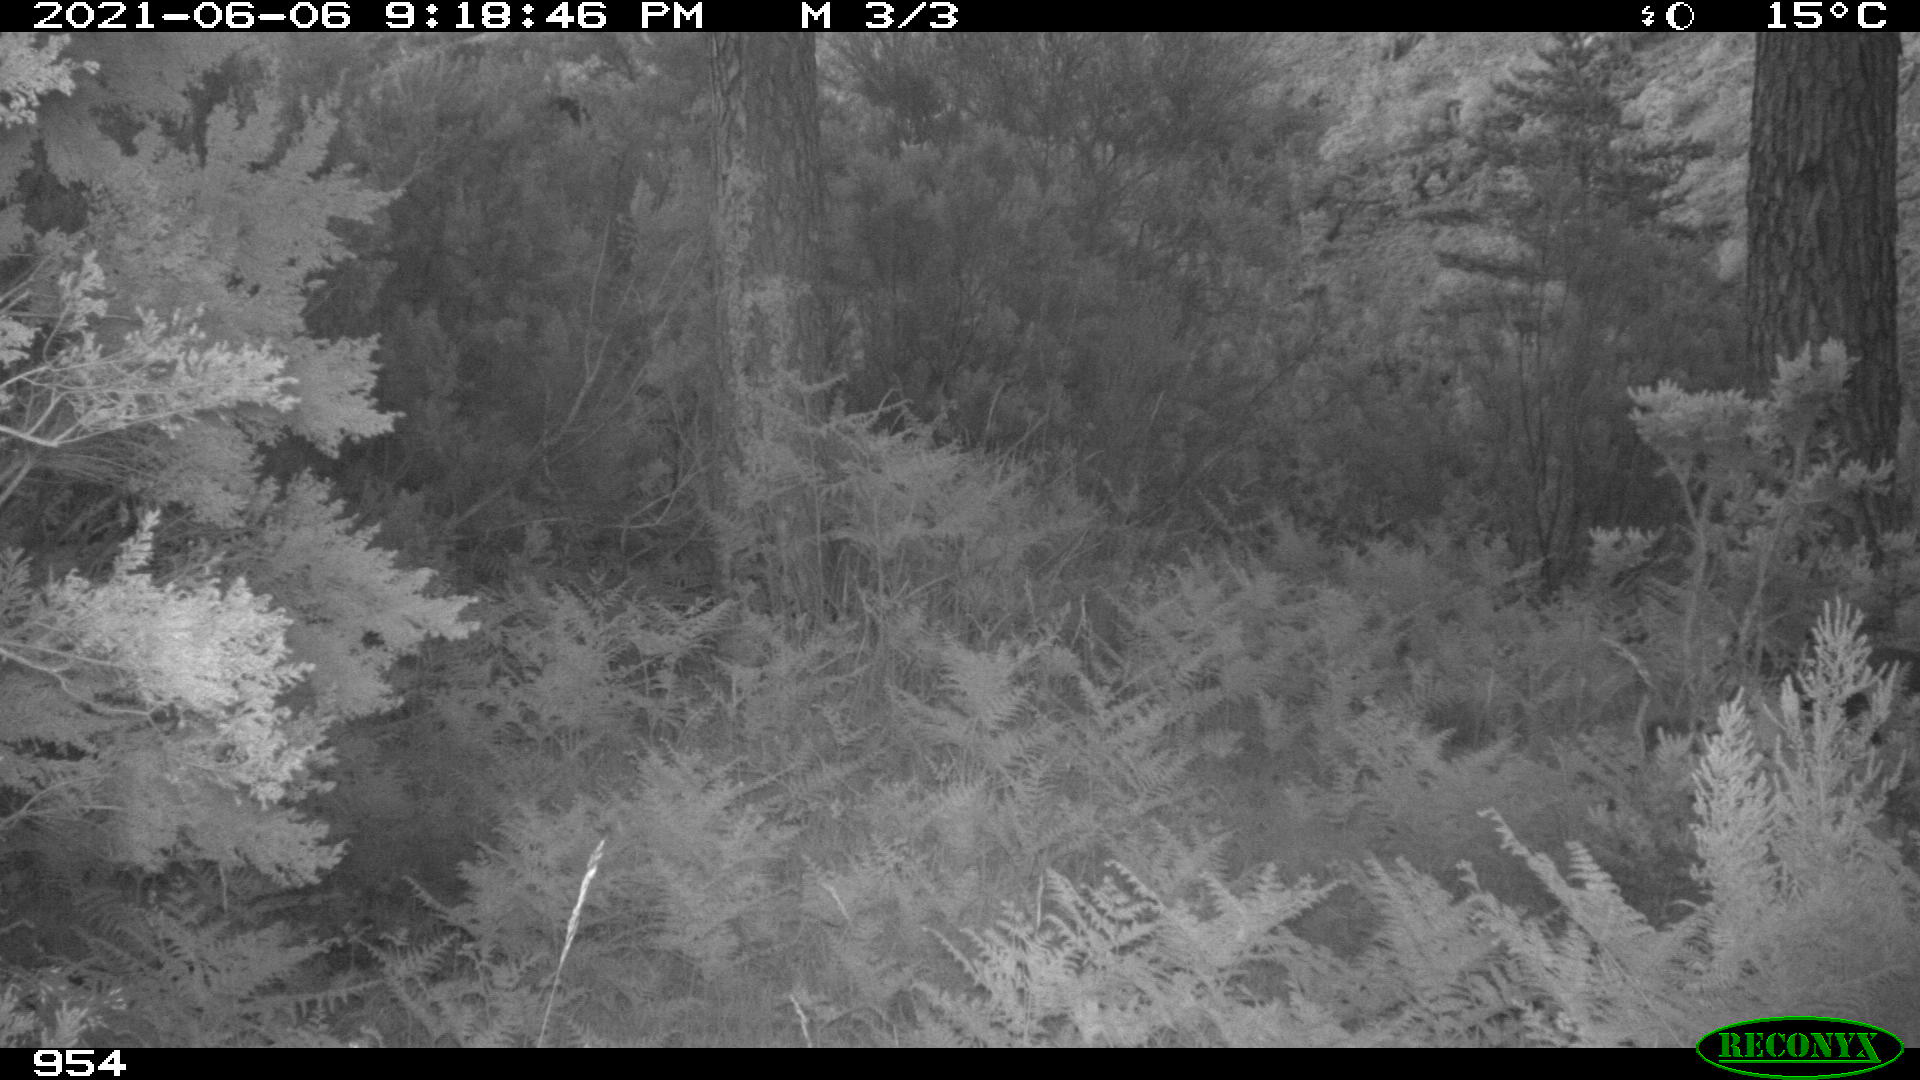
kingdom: Animalia
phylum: Chordata
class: Mammalia
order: Artiodactyla
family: Cervidae
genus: Capreolus
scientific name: Capreolus capreolus
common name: Western roe deer
